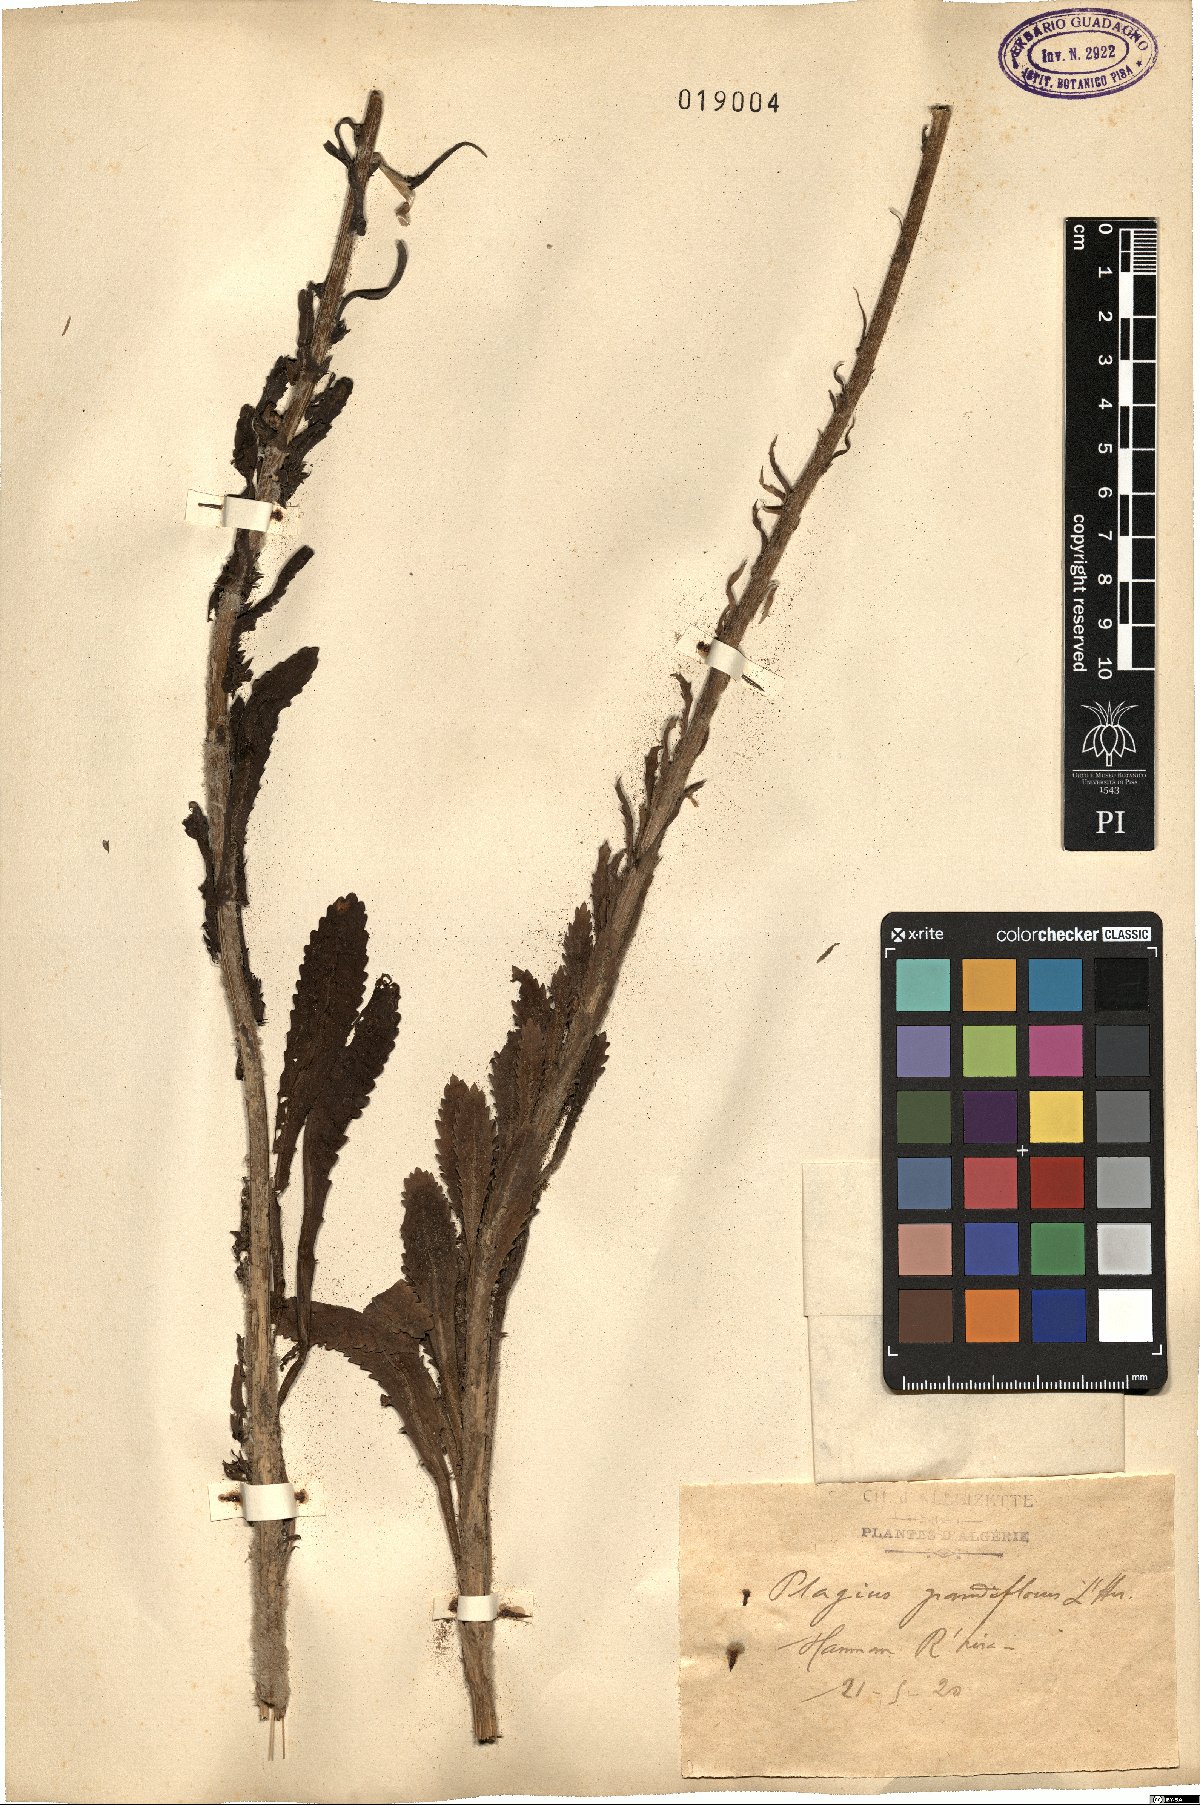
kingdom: Plantae
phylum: Tracheophyta
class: Magnoliopsida
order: Asterales
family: Asteraceae
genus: Plagius
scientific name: Plagius grandis
